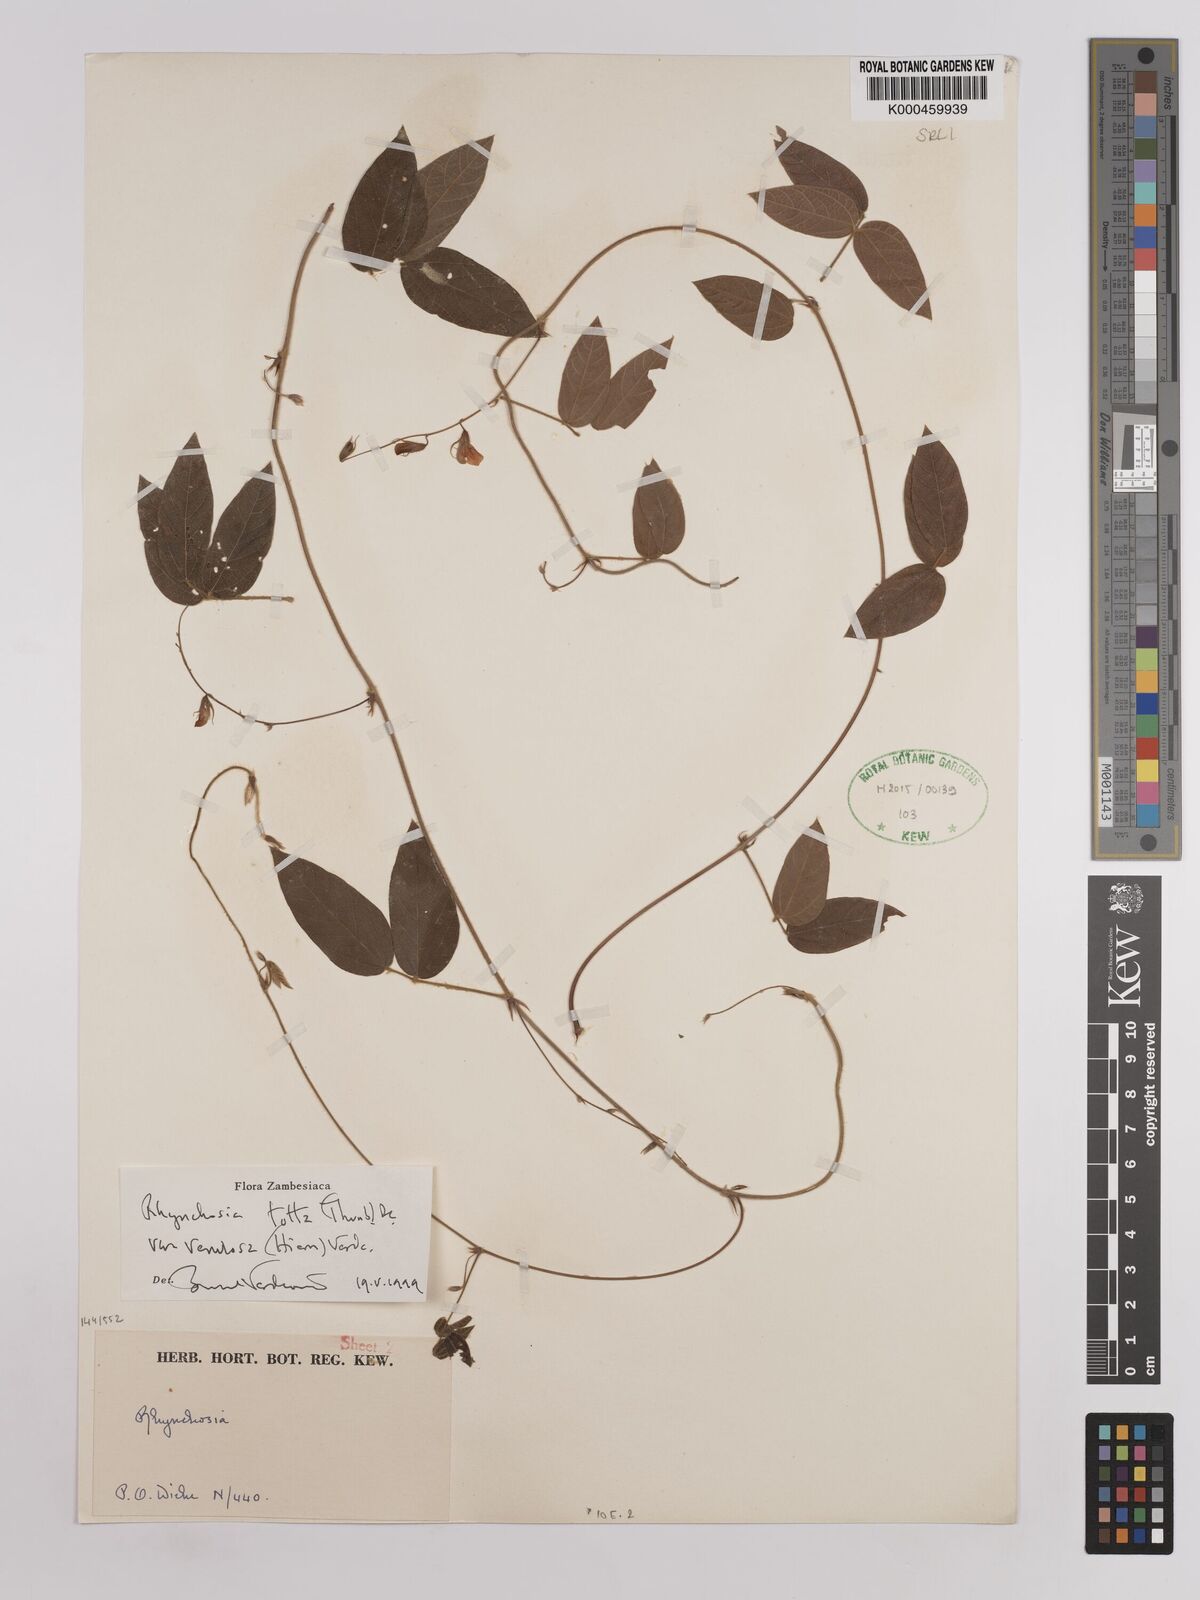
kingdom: Plantae
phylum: Tracheophyta
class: Magnoliopsida
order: Fabales
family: Fabaceae
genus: Rhynchosia
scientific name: Rhynchosia totta
